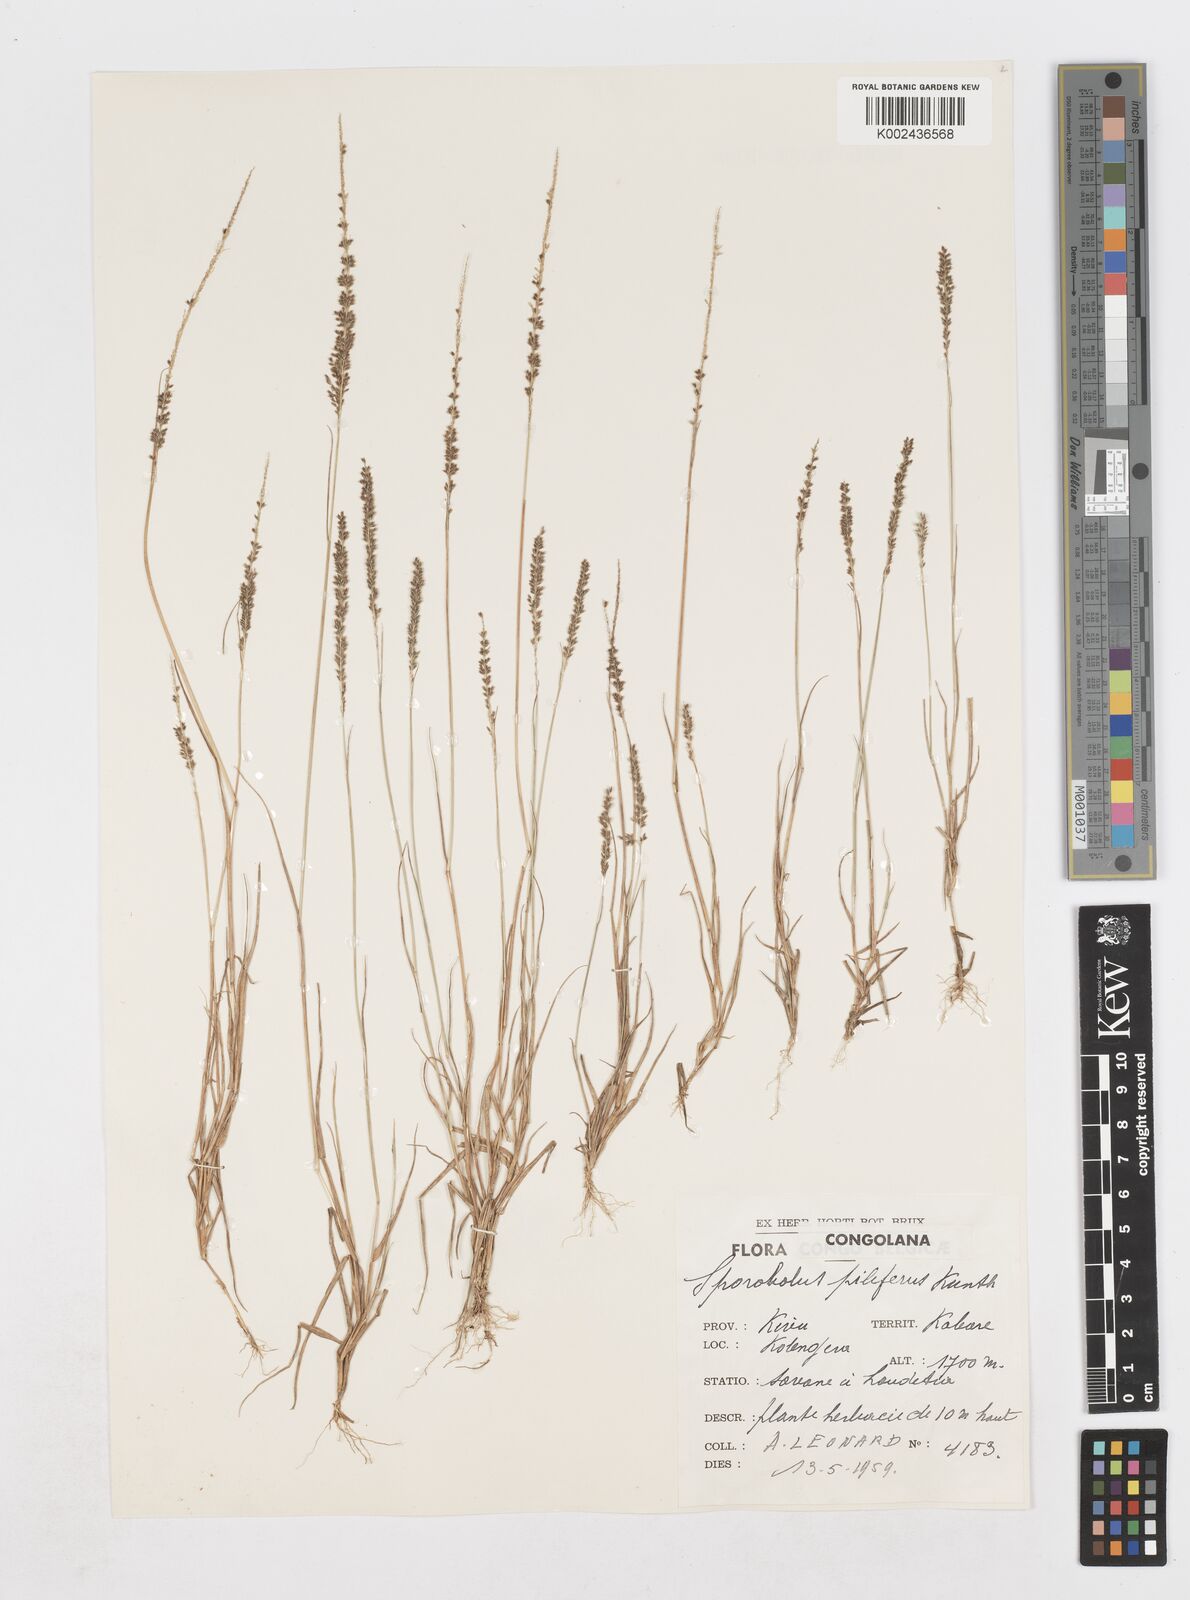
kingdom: Plantae
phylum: Tracheophyta
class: Liliopsida
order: Poales
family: Poaceae
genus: Sporobolus
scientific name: Sporobolus pilifer
